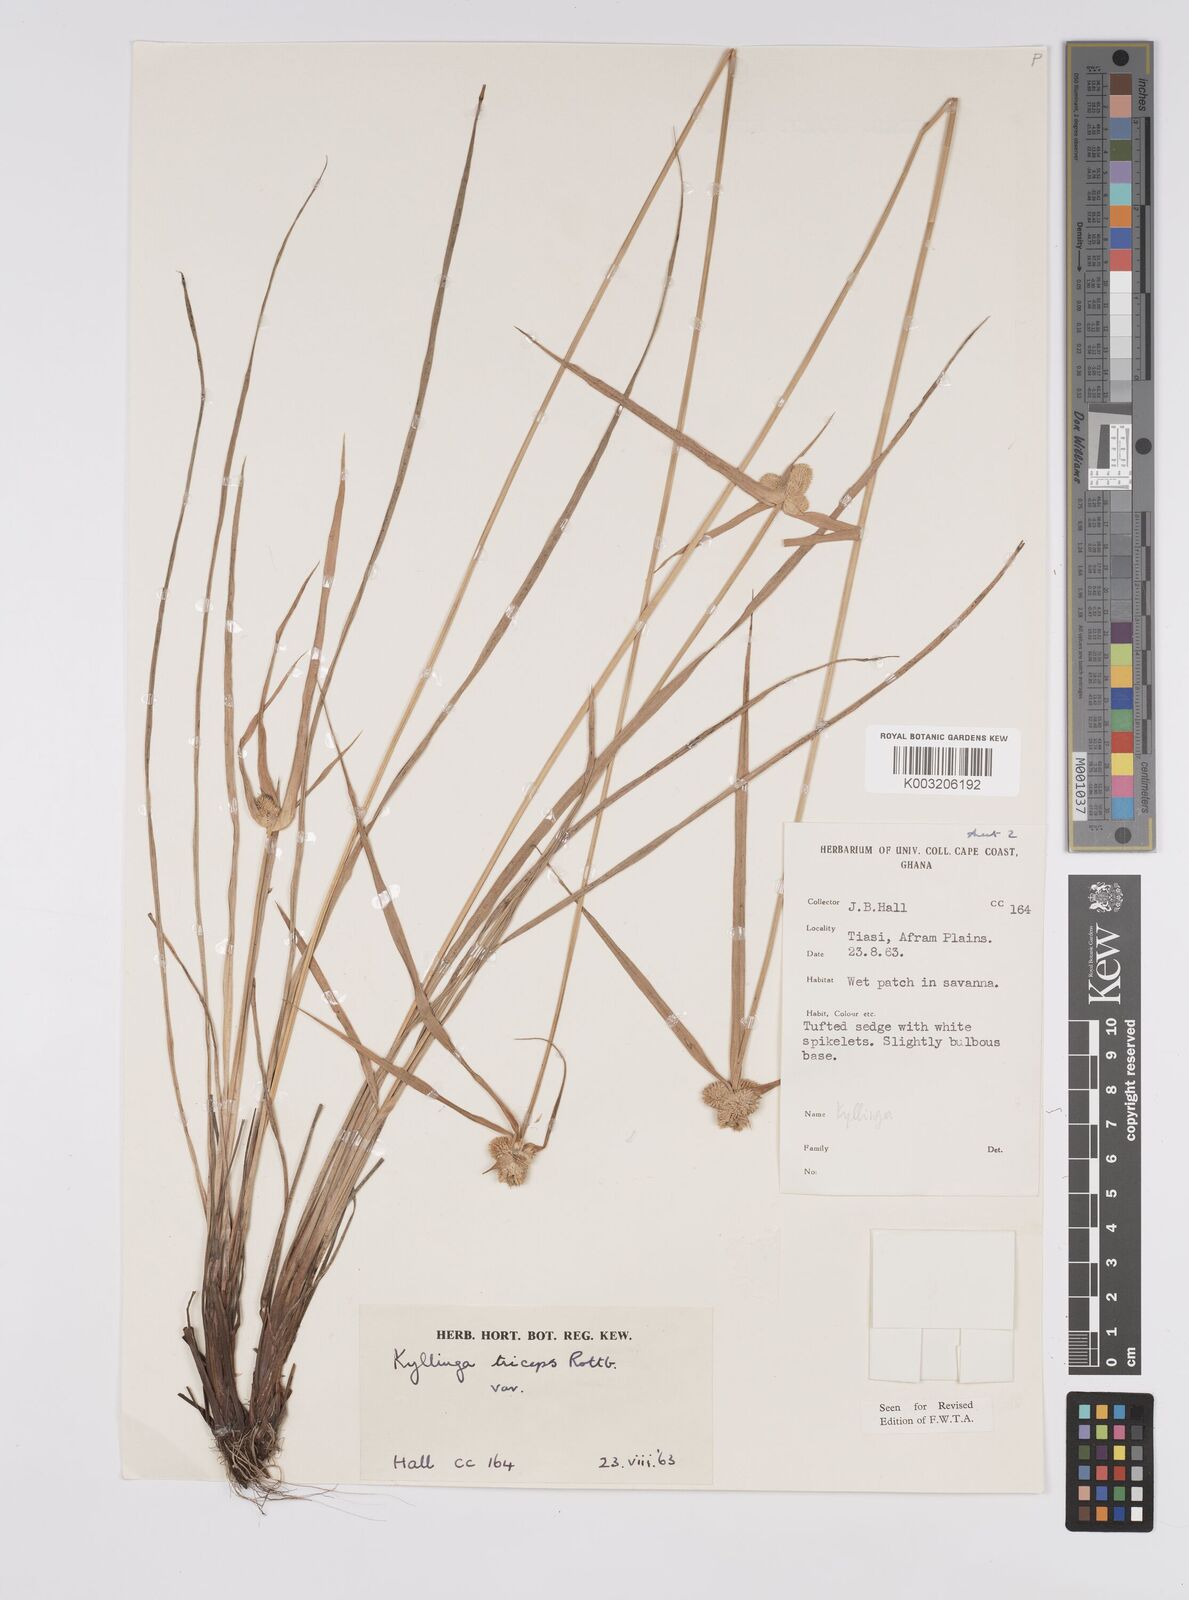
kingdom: Plantae
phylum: Tracheophyta
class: Liliopsida
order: Poales
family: Cyperaceae
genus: Cyperus
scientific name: Cyperus
